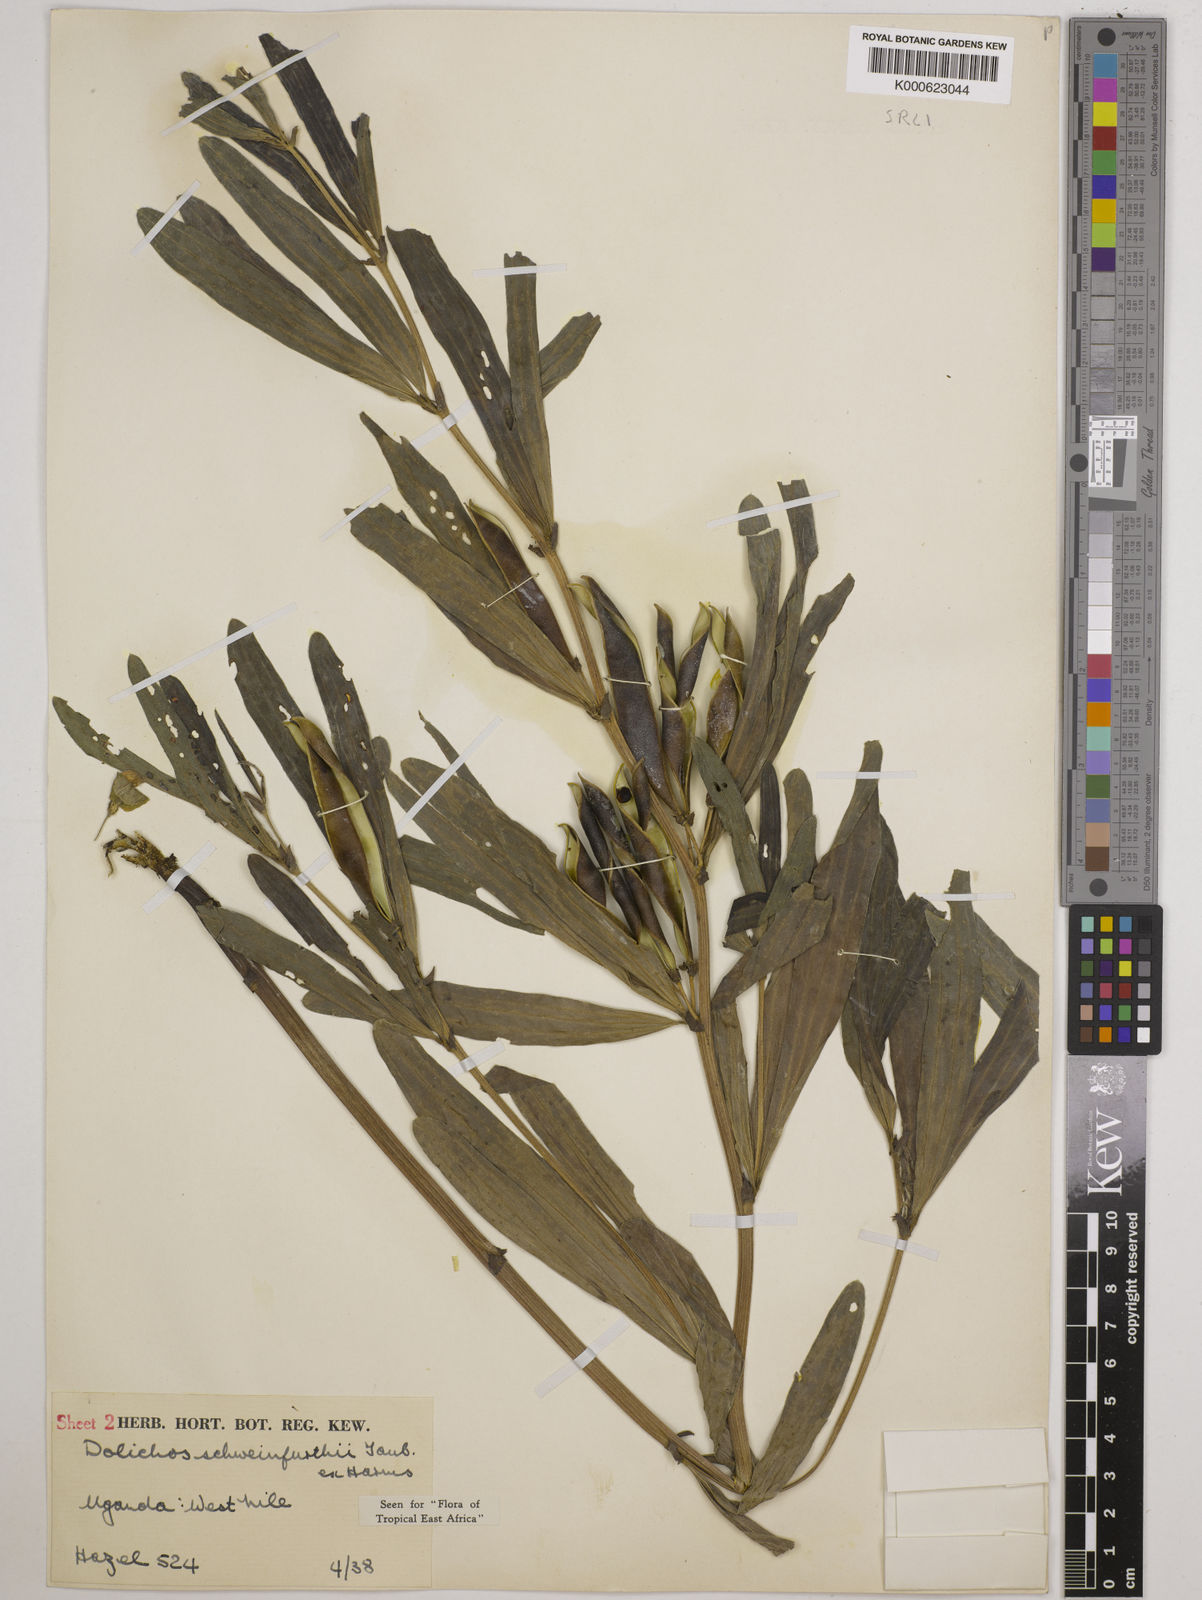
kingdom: Plantae
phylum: Tracheophyta
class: Magnoliopsida
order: Fabales
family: Fabaceae
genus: Dolichos
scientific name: Dolichos schweinfurthii
